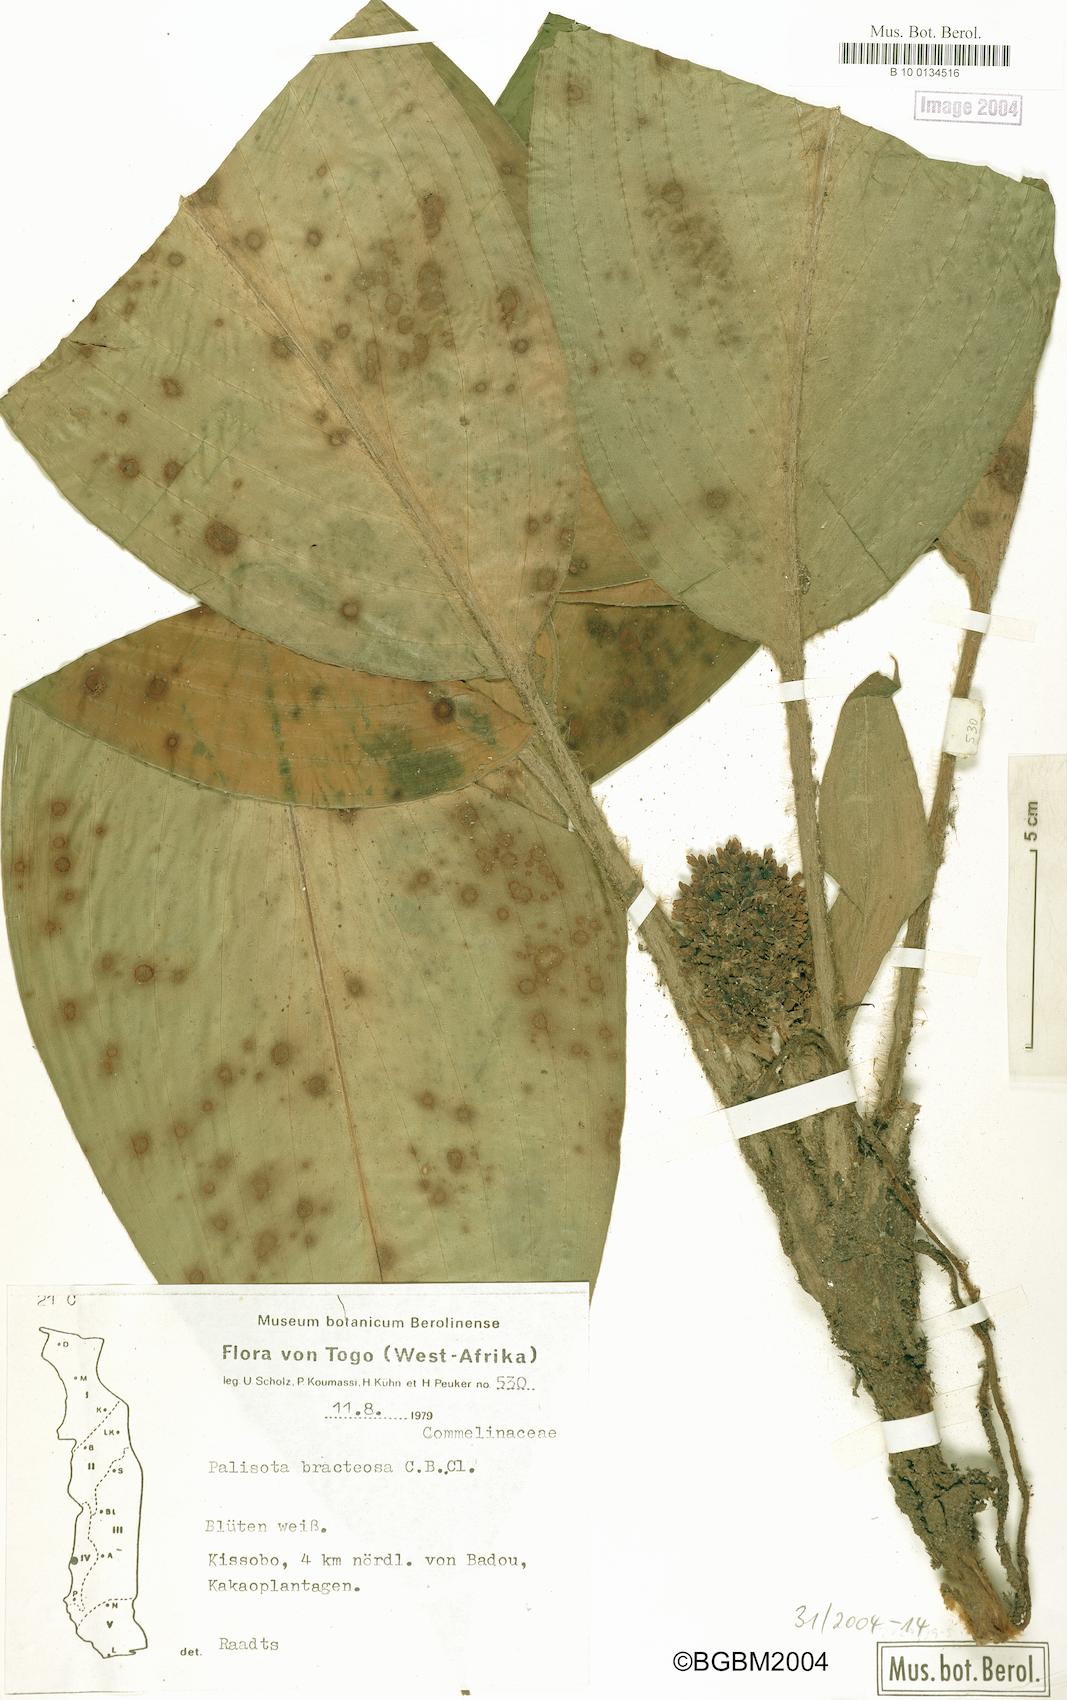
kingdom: Plantae
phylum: Tracheophyta
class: Liliopsida
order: Commelinales
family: Commelinaceae
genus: Palisota
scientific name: Palisota barteri
